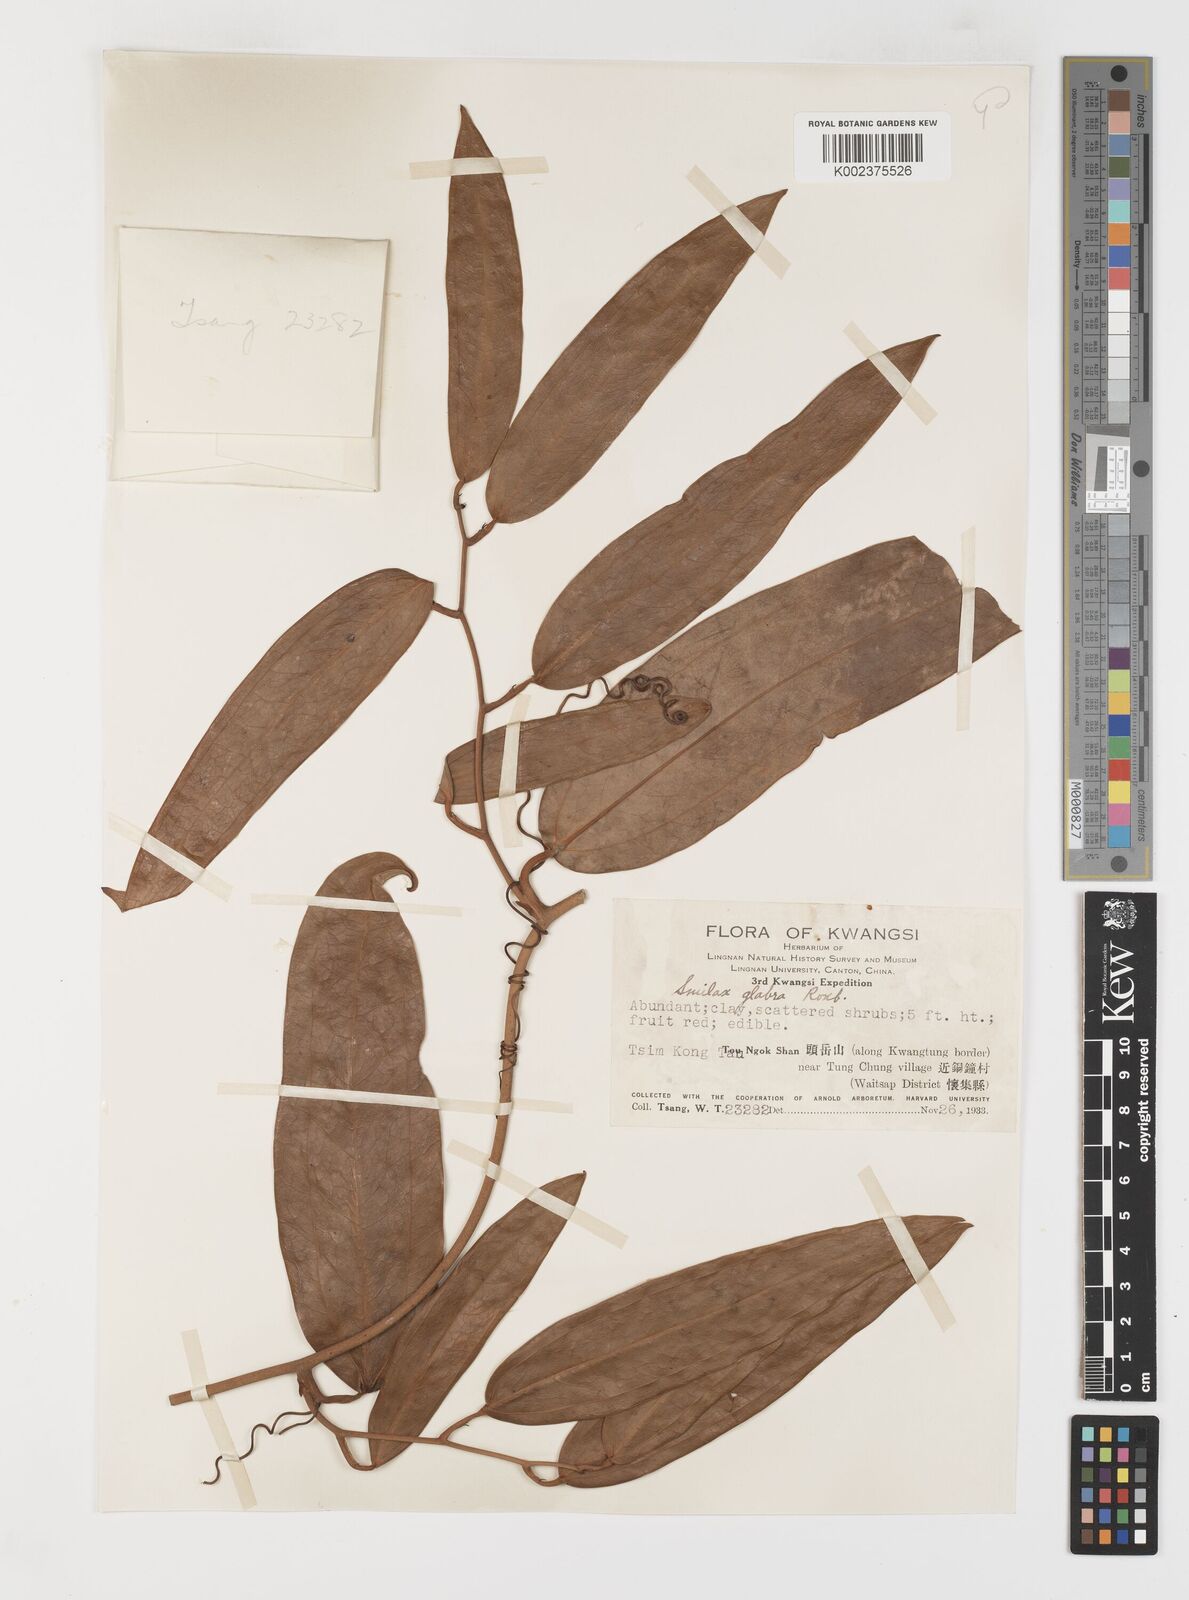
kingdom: Plantae
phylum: Tracheophyta
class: Liliopsida
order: Liliales
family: Smilacaceae
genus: Smilax
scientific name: Smilax laevis
